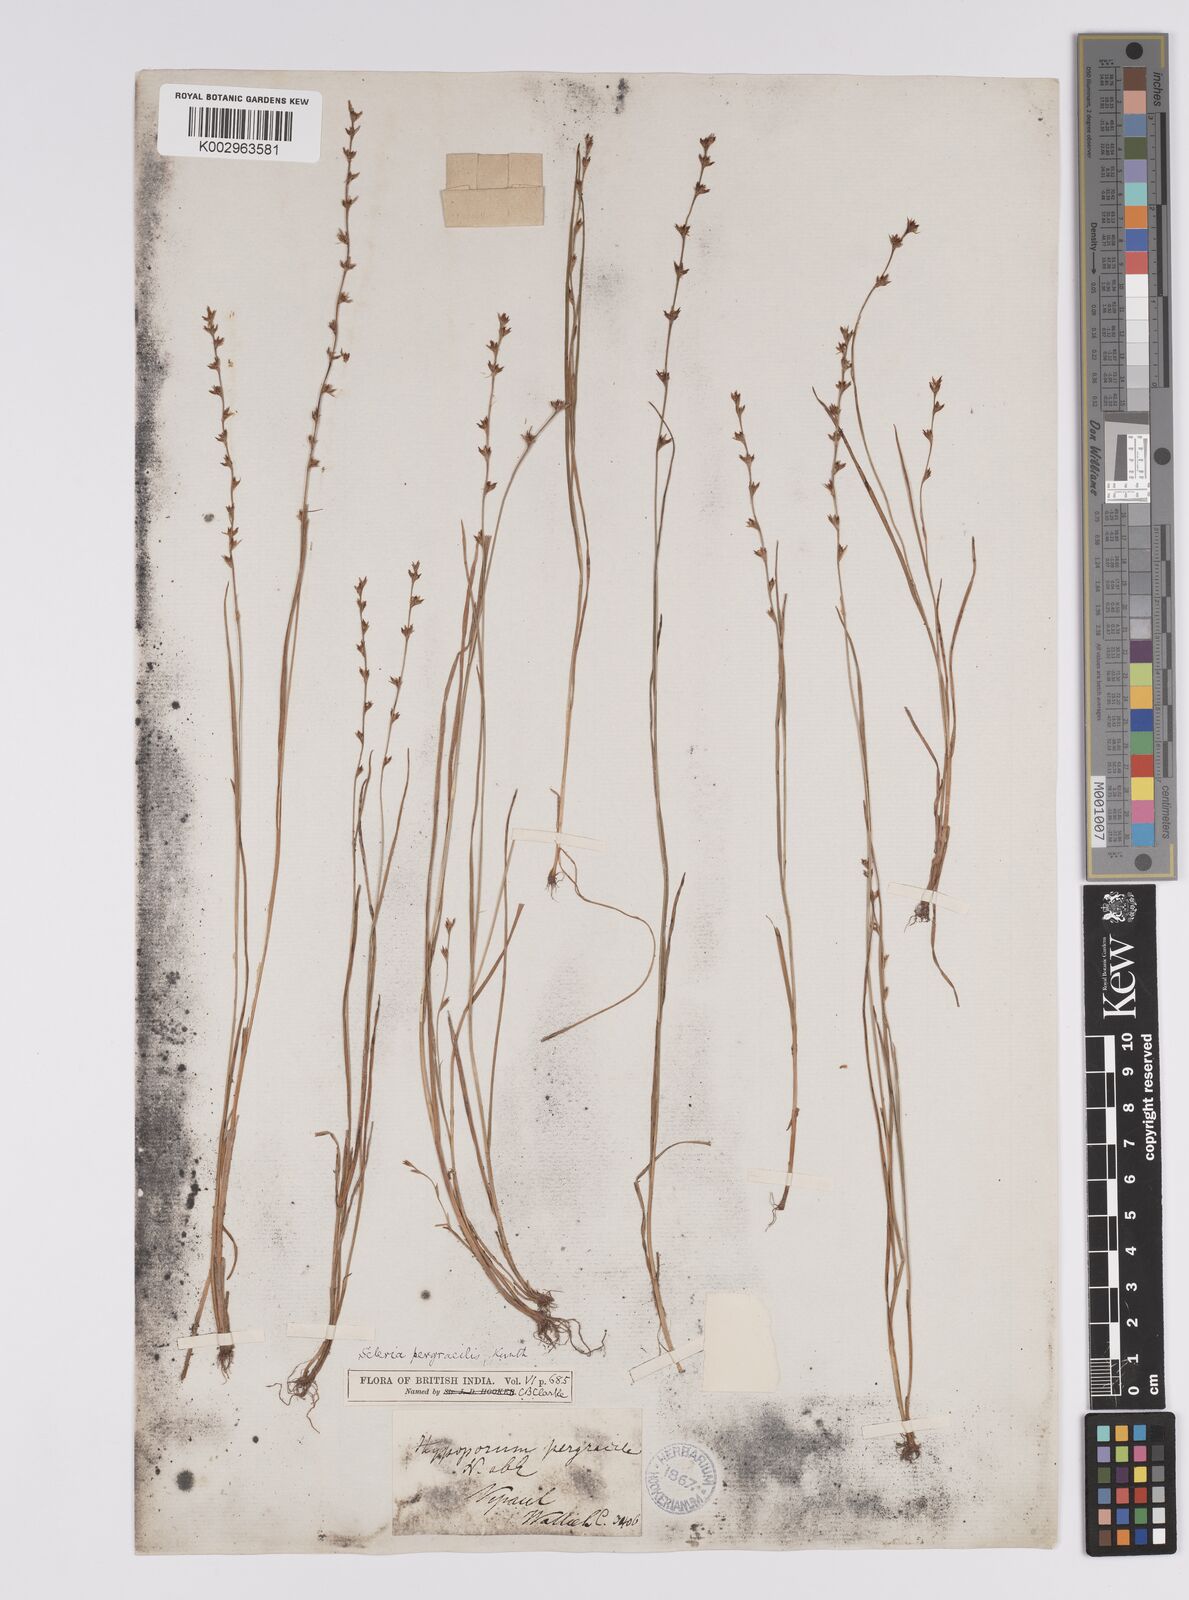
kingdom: Plantae
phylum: Tracheophyta
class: Liliopsida
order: Poales
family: Cyperaceae
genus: Scleria
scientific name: Scleria pergracilis
